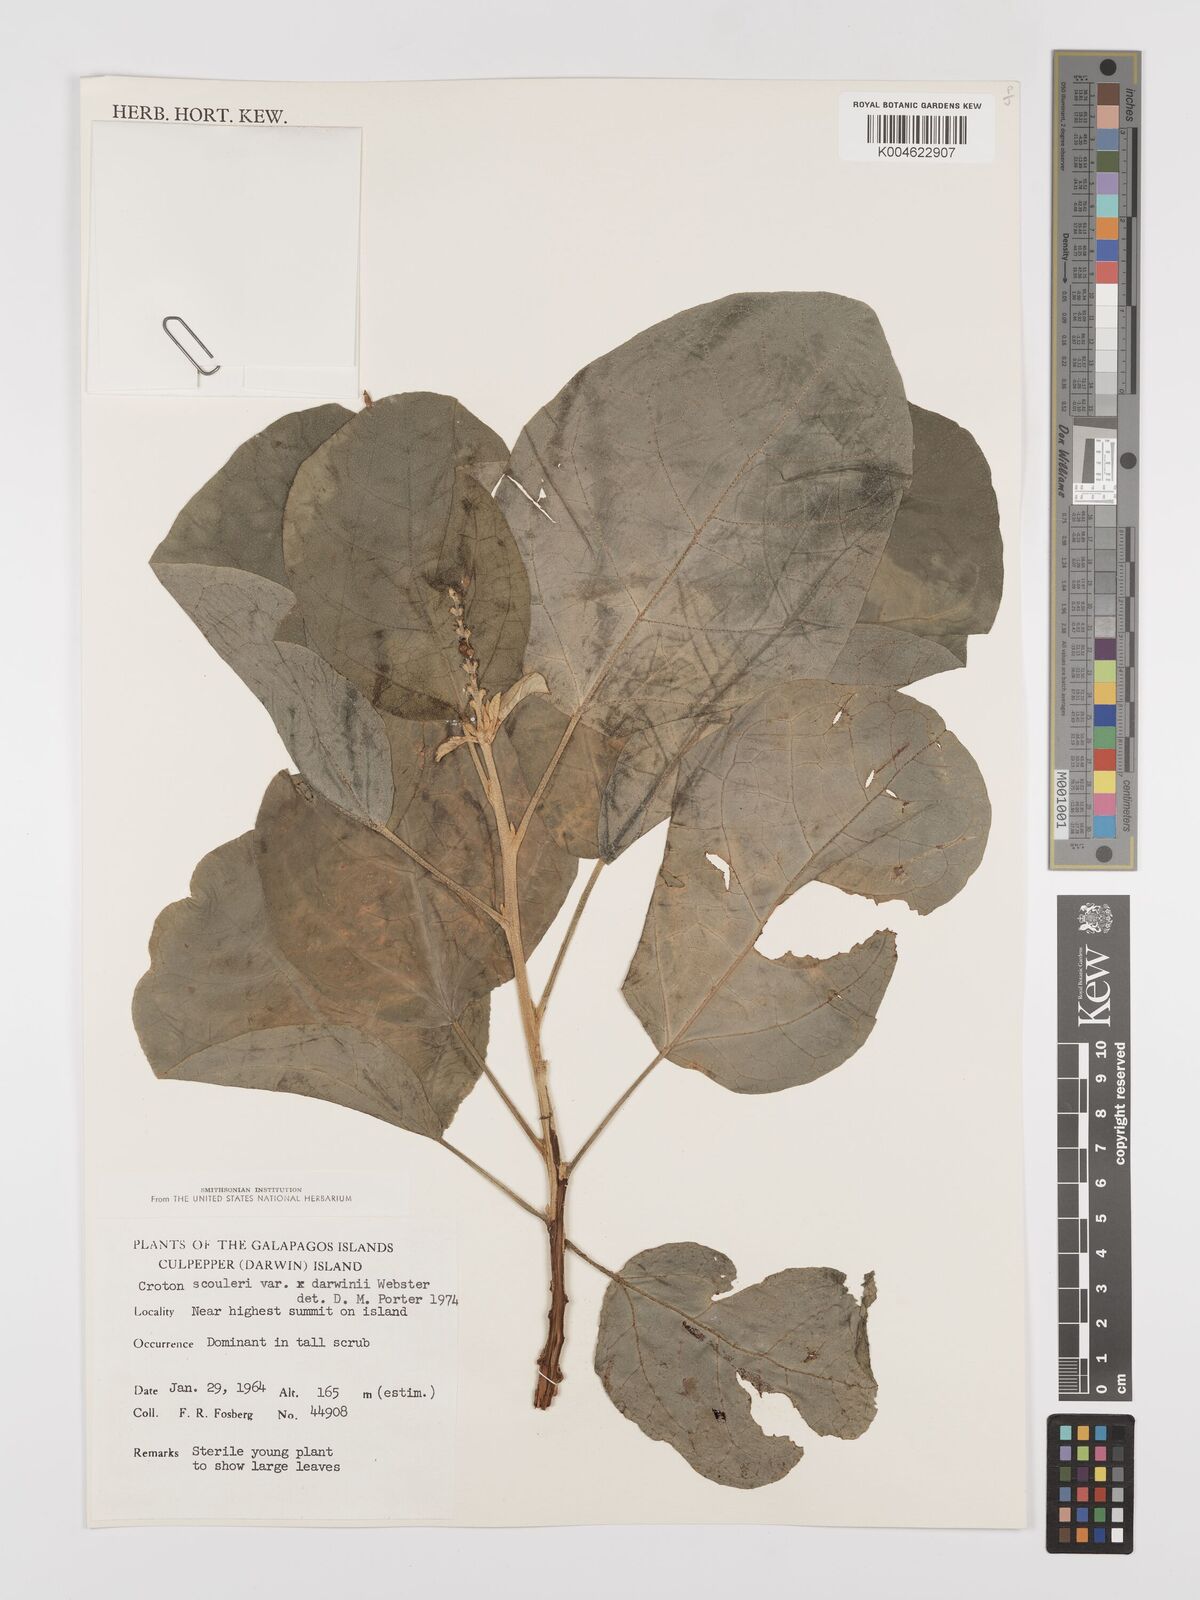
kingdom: Plantae
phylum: Tracheophyta
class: Magnoliopsida
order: Malpighiales
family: Euphorbiaceae
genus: Croton
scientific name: Croton scouleri
